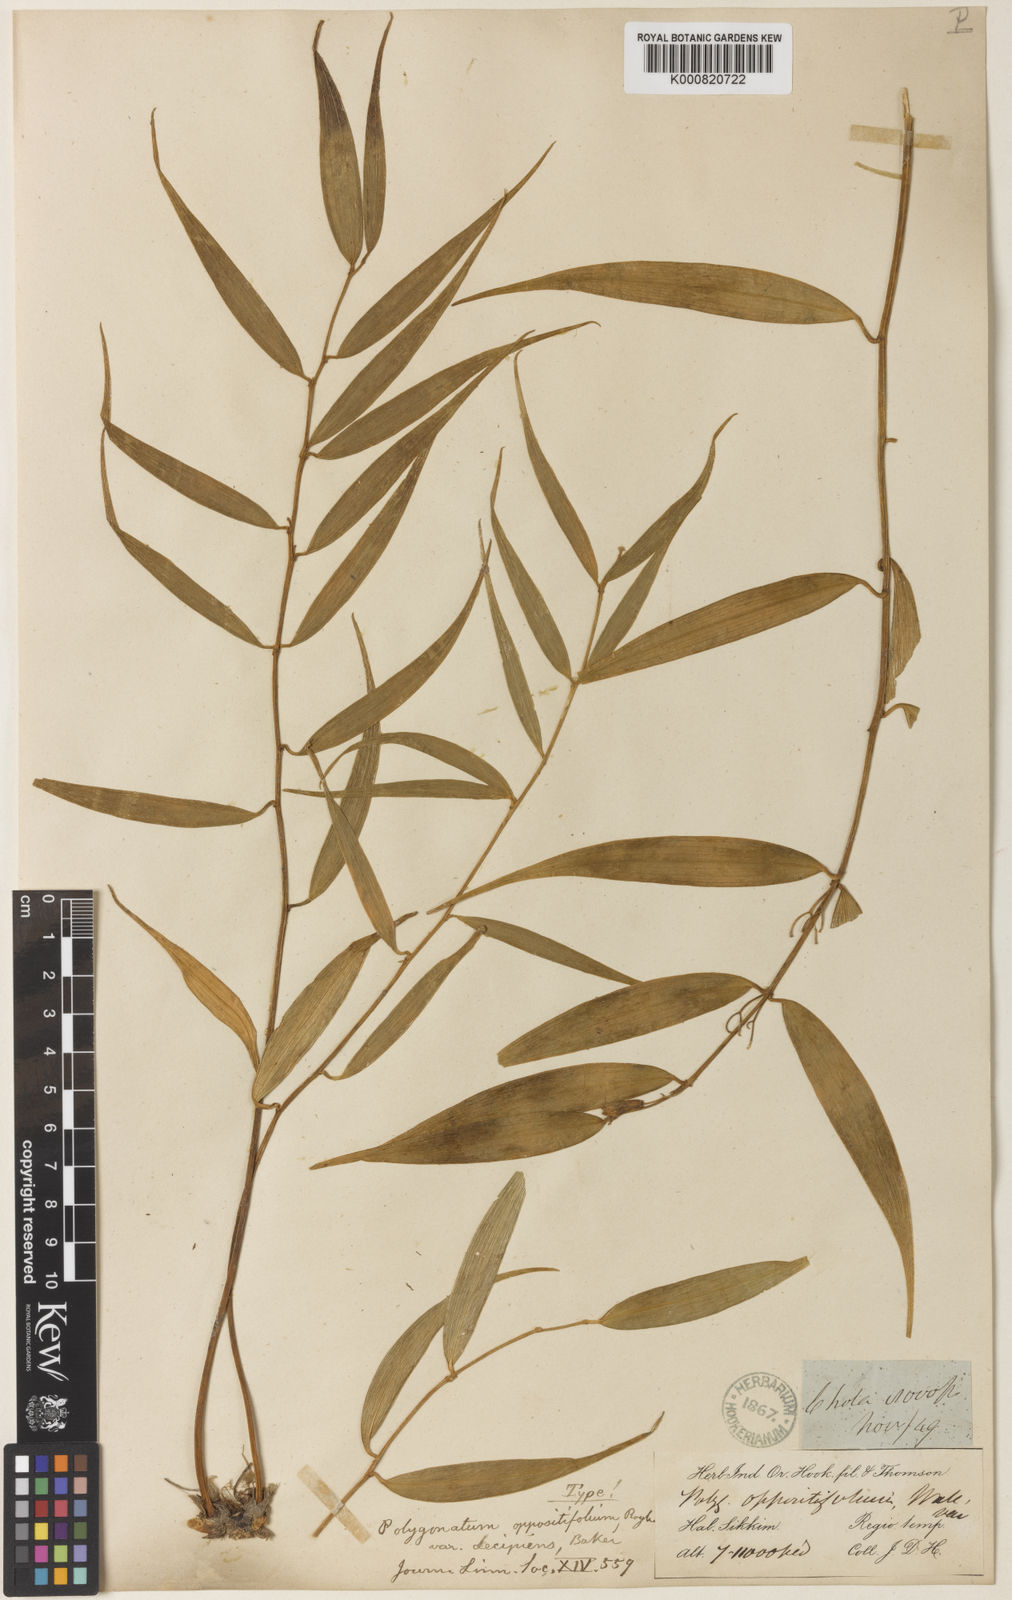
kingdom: Plantae
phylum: Tracheophyta
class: Liliopsida
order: Asparagales
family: Asparagaceae
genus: Polygonatum
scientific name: Polygonatum oppositifolium
